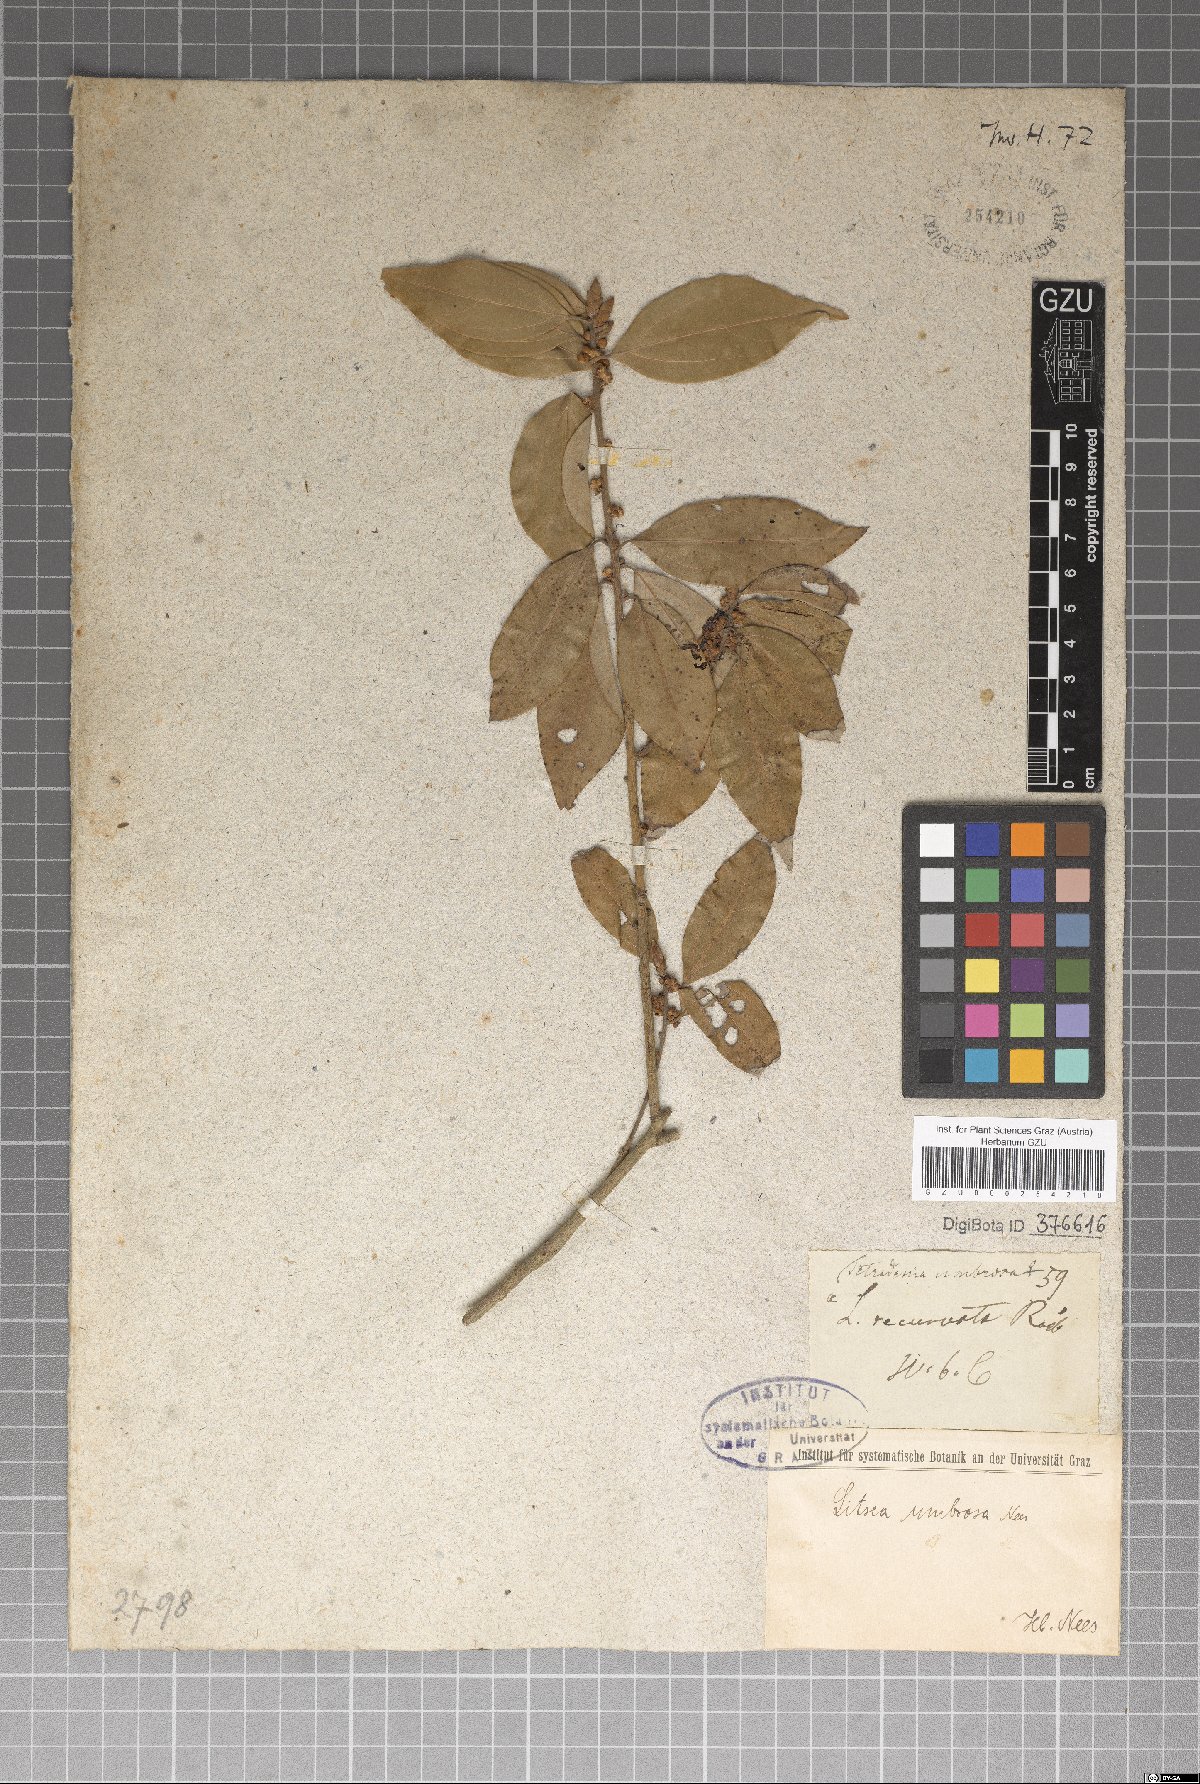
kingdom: Plantae
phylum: Tracheophyta
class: Magnoliopsida
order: Laurales
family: Lauraceae
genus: Neolitsea
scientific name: Neolitsea umbrosa
